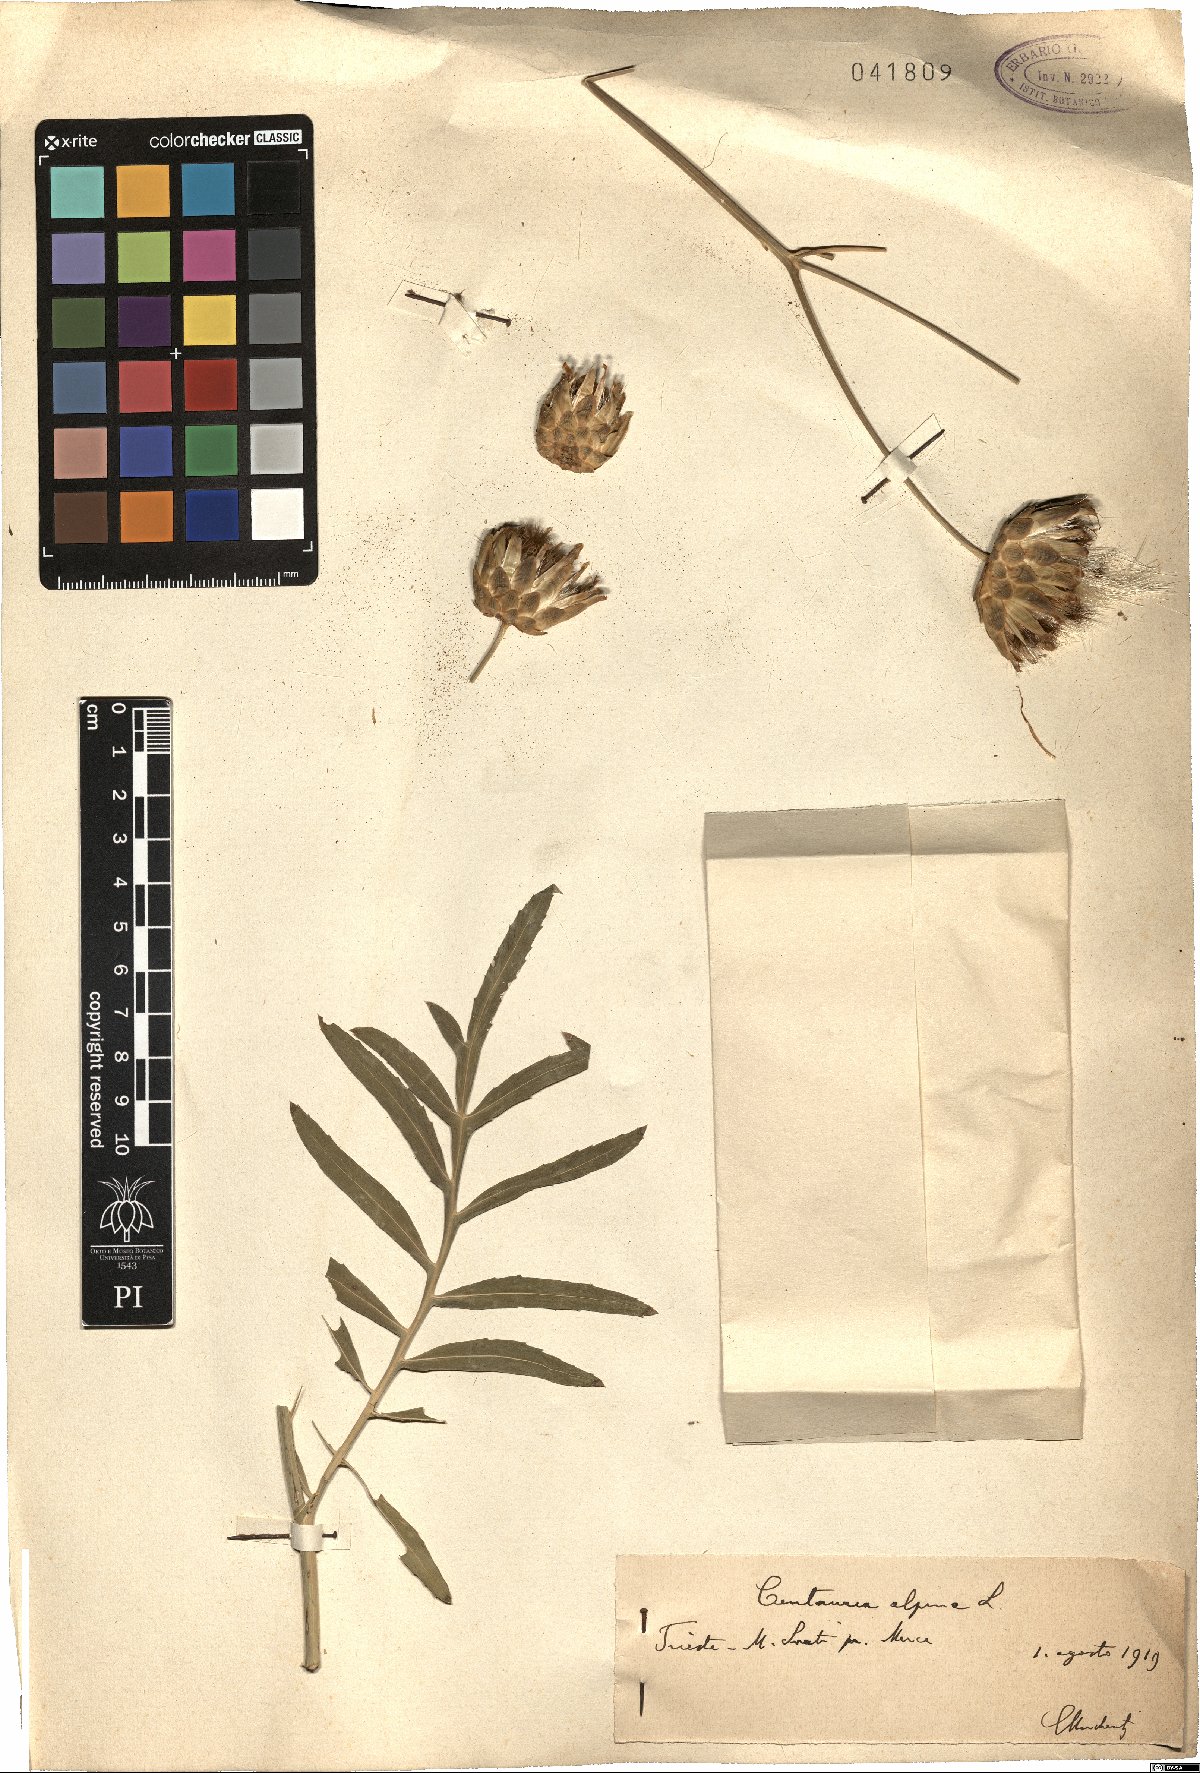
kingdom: Plantae
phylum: Tracheophyta
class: Magnoliopsida
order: Asterales
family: Asteraceae
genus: Rhaponticoides
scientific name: Rhaponticoides alpina
